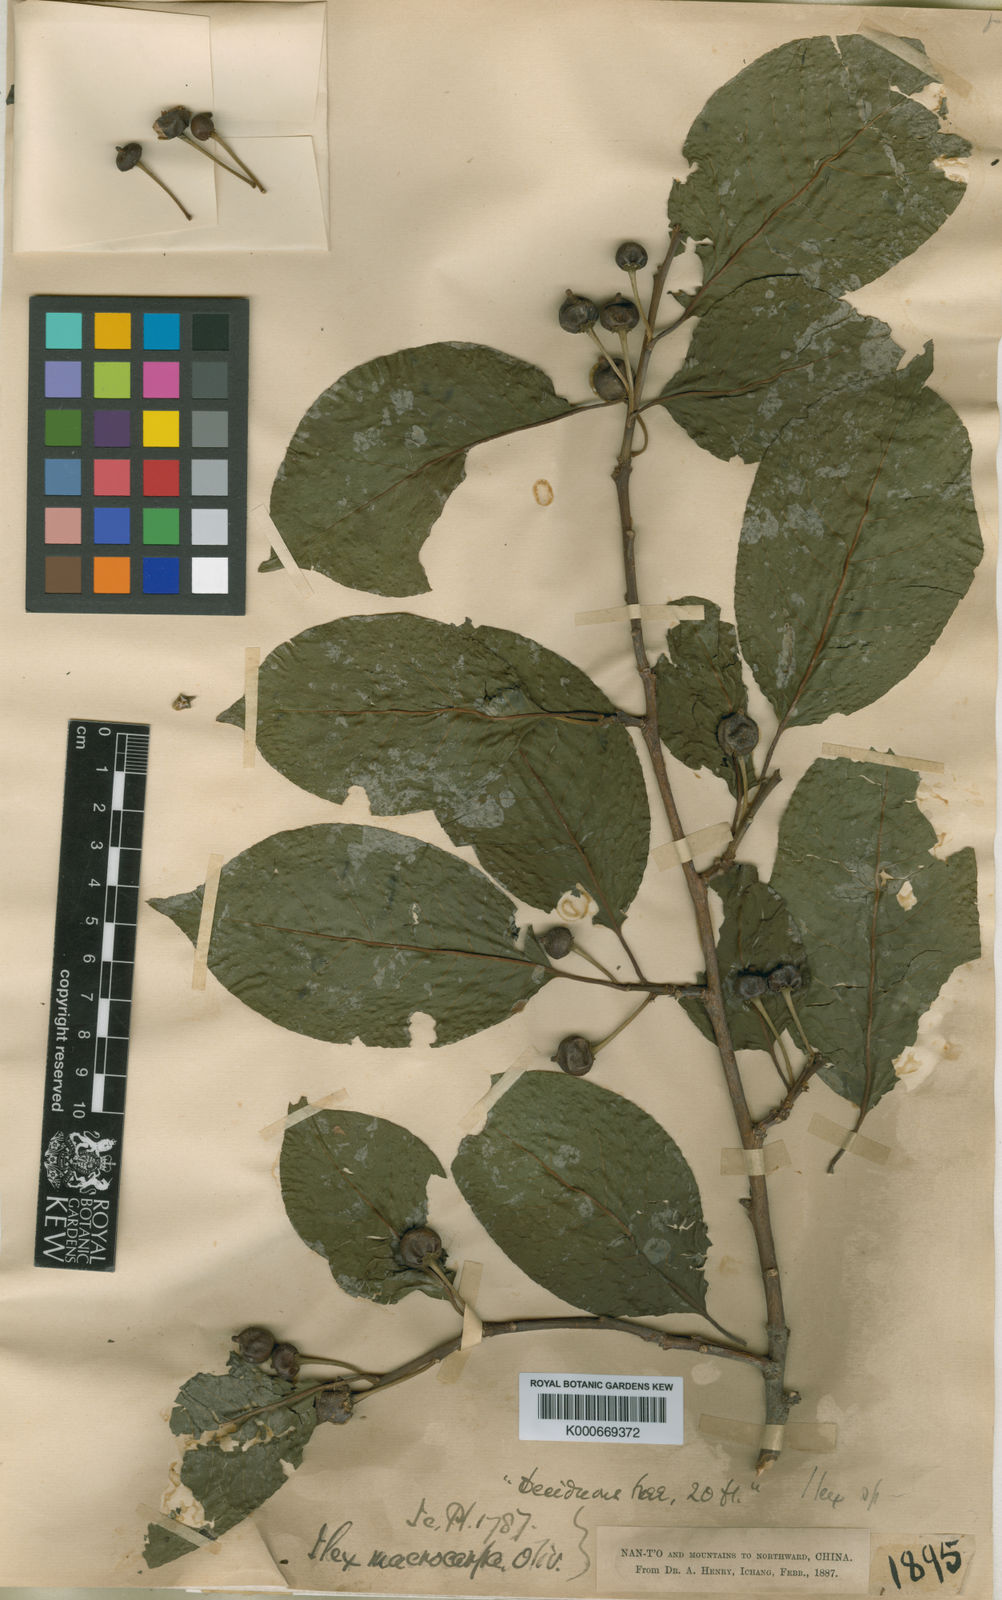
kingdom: Plantae
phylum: Tracheophyta
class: Magnoliopsida
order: Aquifoliales
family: Aquifoliaceae
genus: Ilex
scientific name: Ilex macrocarpa
